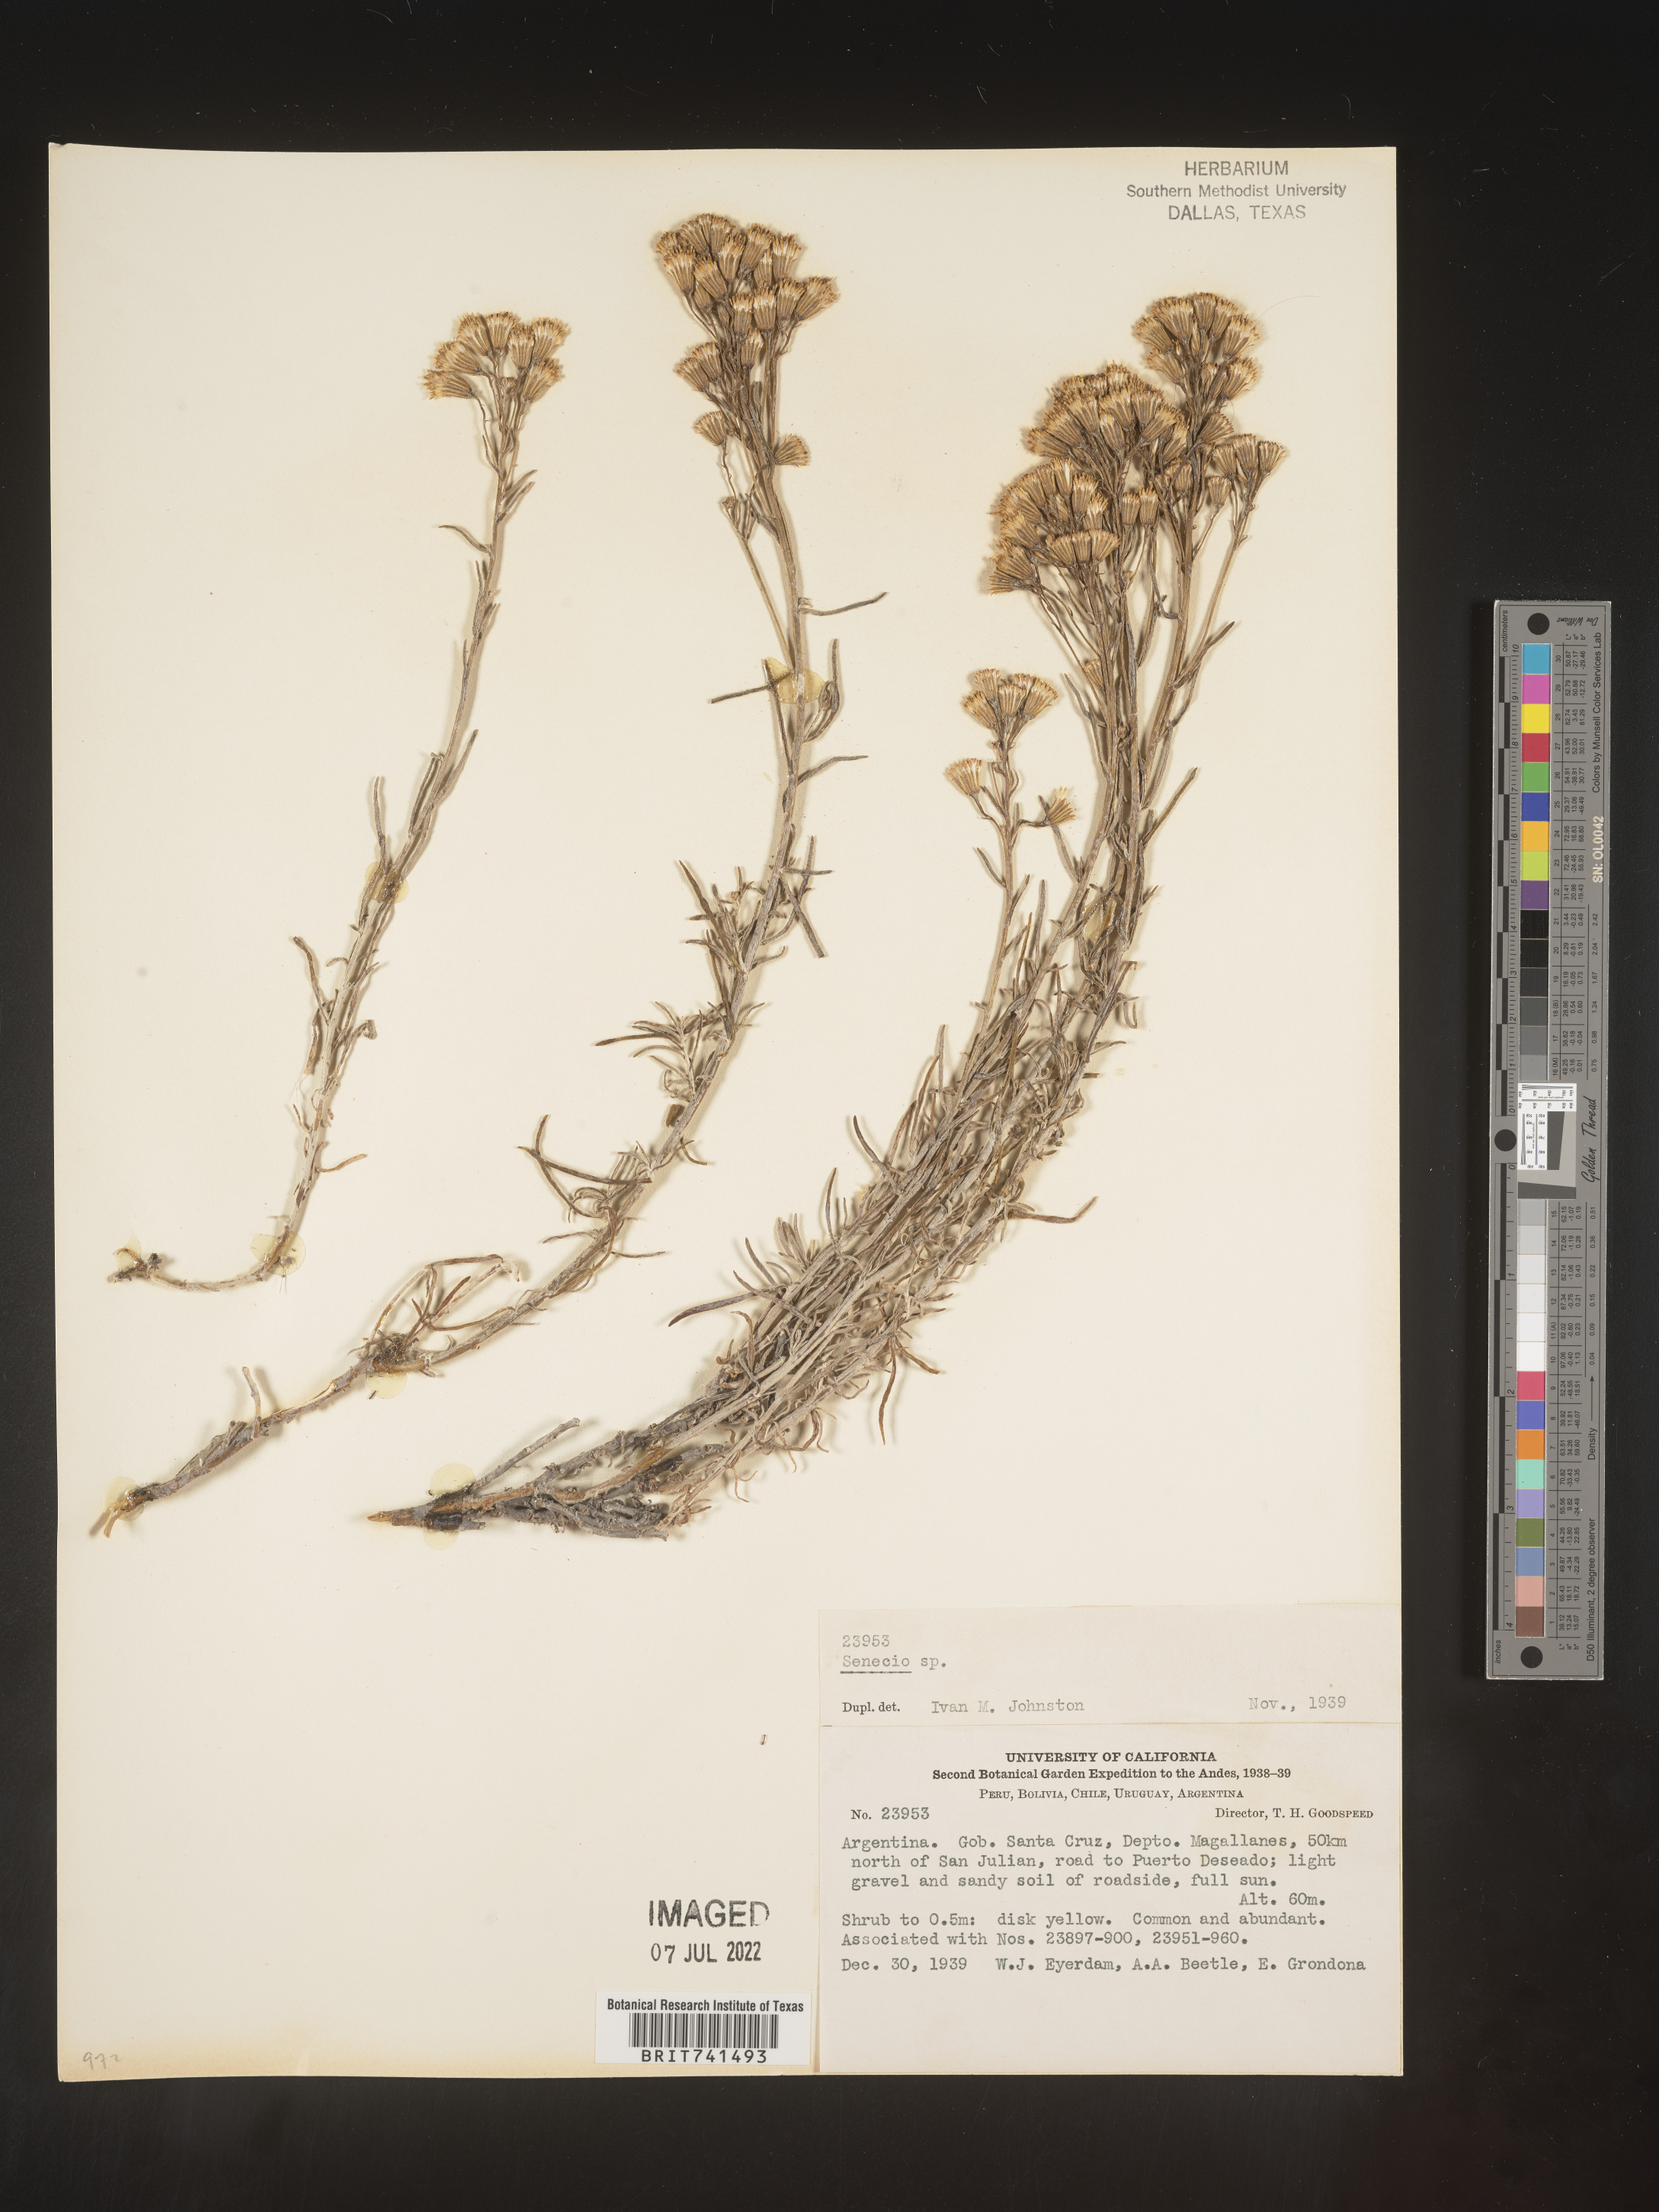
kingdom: Plantae
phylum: Tracheophyta
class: Magnoliopsida
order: Asterales
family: Asteraceae
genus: Senecio
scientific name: Senecio
